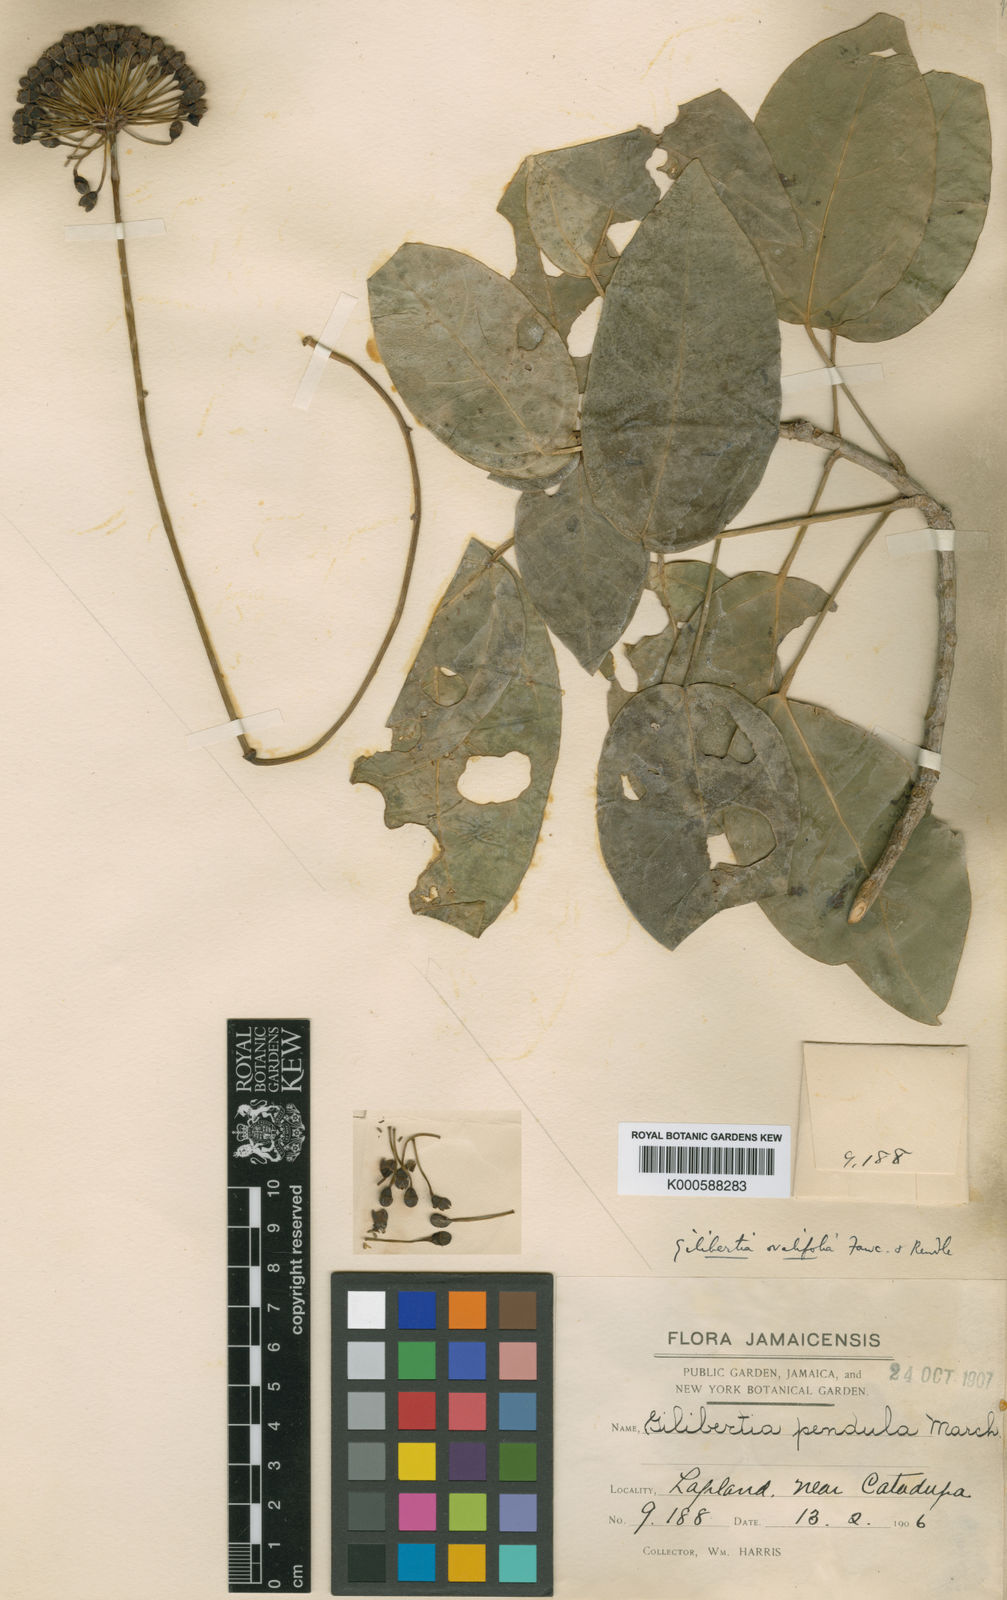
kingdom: Plantae
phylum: Tracheophyta
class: Magnoliopsida
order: Apiales
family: Araliaceae
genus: Dendropanax
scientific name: Dendropanax pendulus
